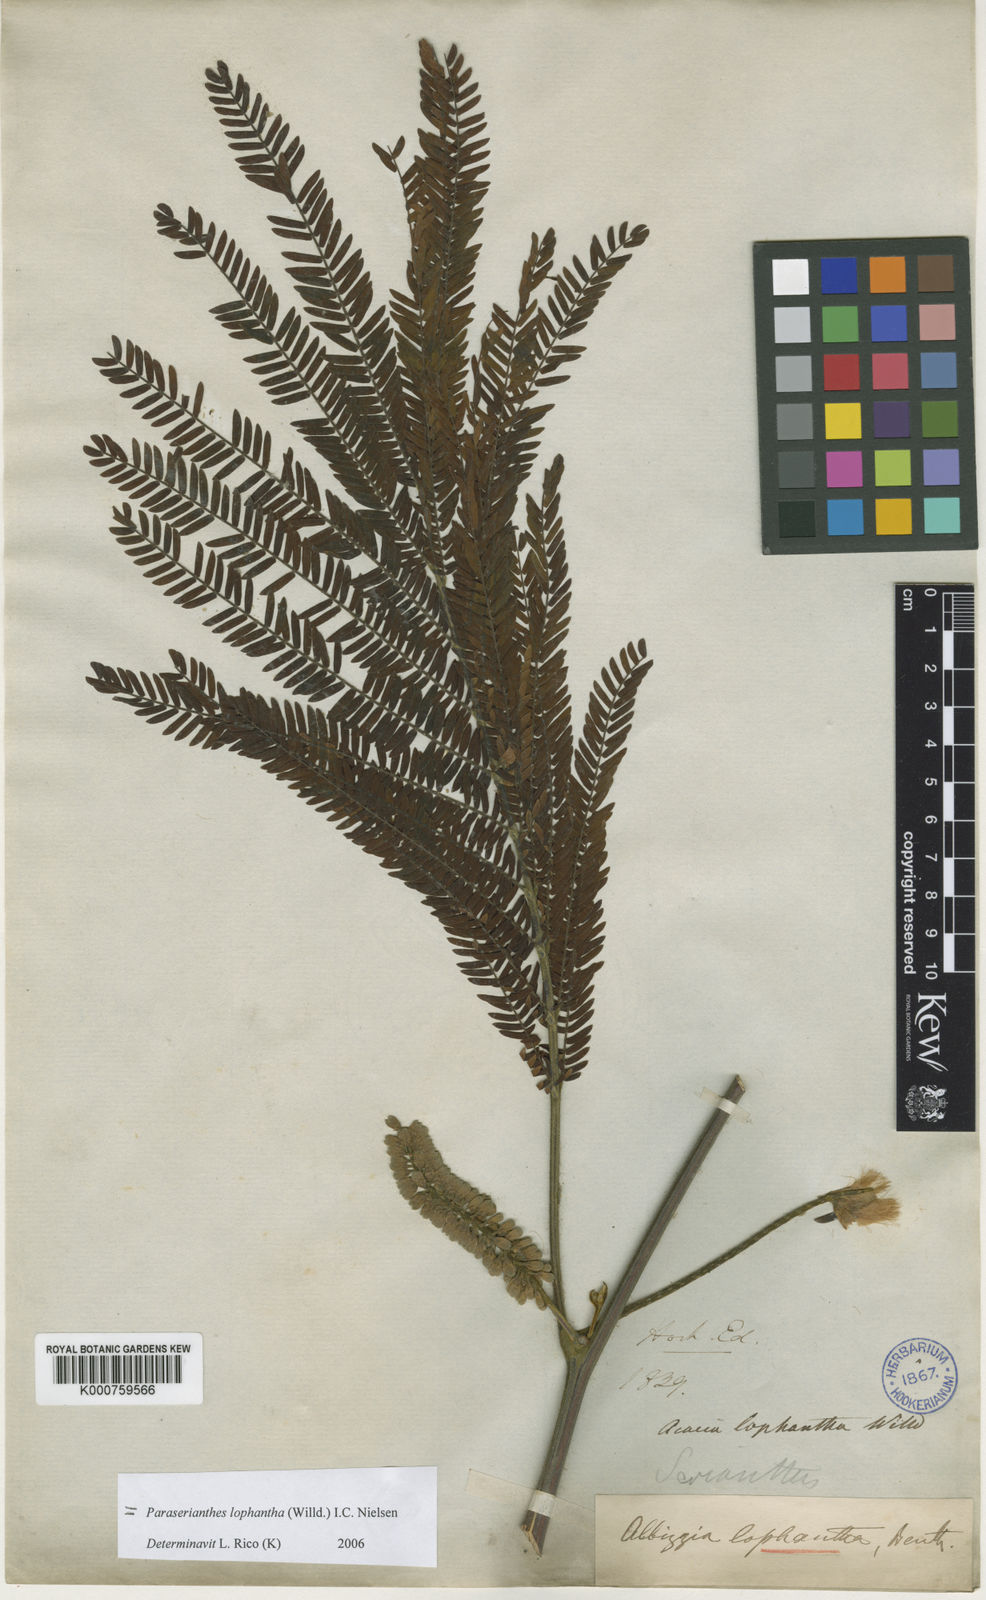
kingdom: Plantae
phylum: Tracheophyta
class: Magnoliopsida
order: Fabales
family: Fabaceae
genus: Paraserianthes
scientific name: Paraserianthes lophantha
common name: Plume albizia
